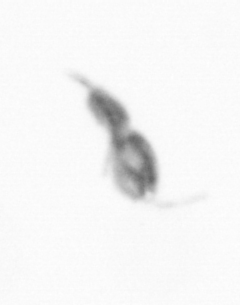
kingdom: Animalia
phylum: Arthropoda
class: Copepoda
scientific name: Copepoda
